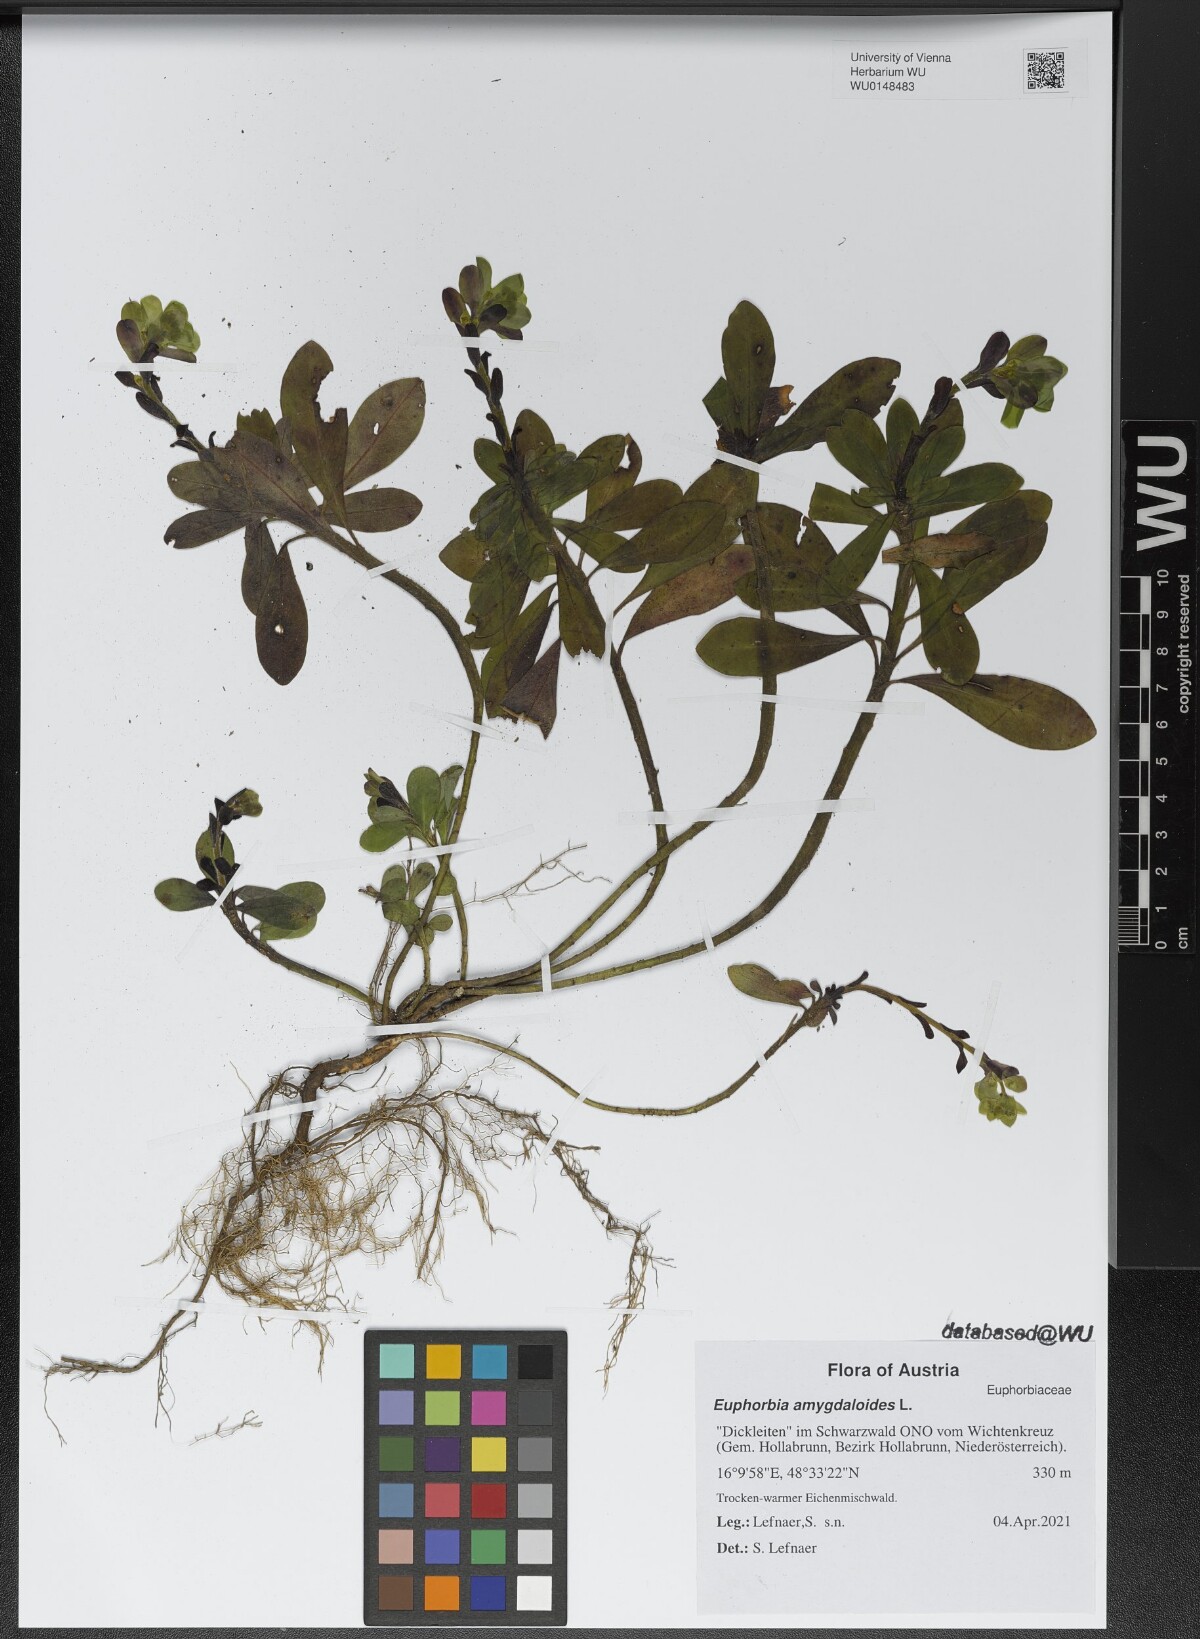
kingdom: Plantae
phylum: Tracheophyta
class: Magnoliopsida
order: Malpighiales
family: Euphorbiaceae
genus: Euphorbia
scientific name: Euphorbia amygdaloides
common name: Wood spurge
